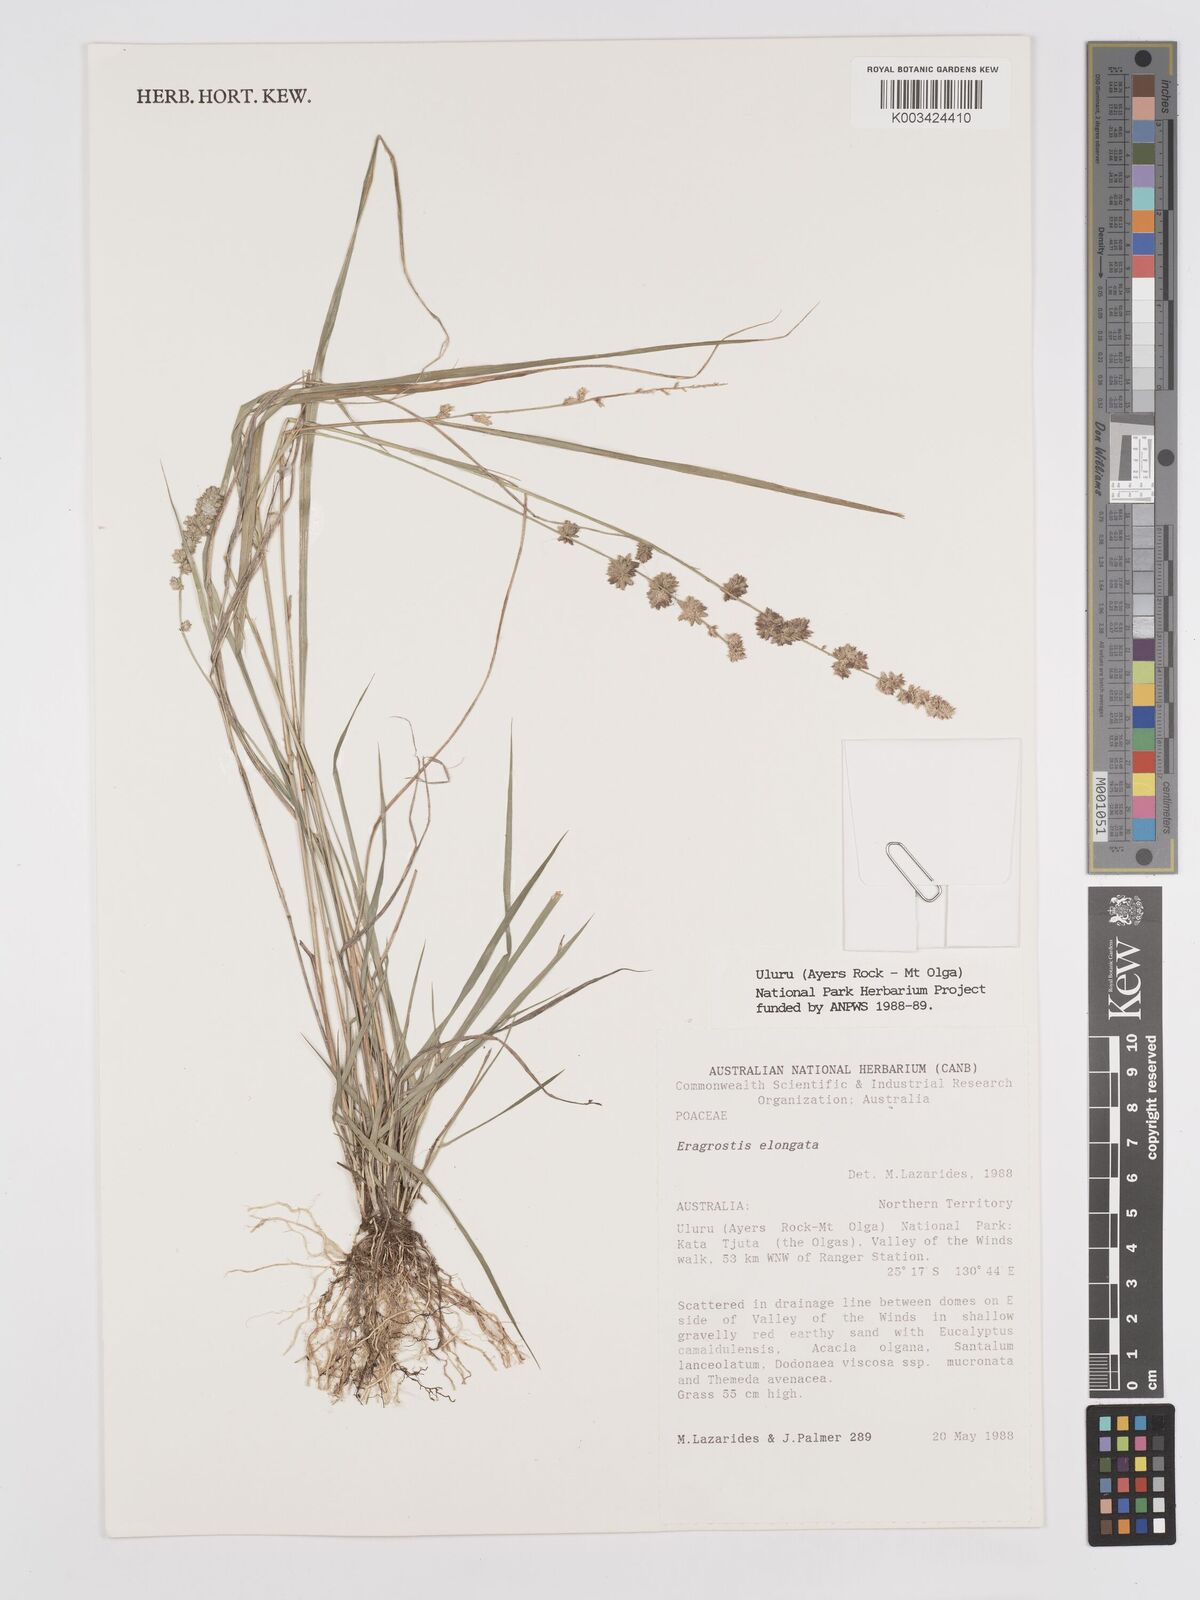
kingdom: Plantae
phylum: Tracheophyta
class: Liliopsida
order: Poales
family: Poaceae
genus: Eragrostis
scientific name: Eragrostis elongata
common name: Long lovegrass
